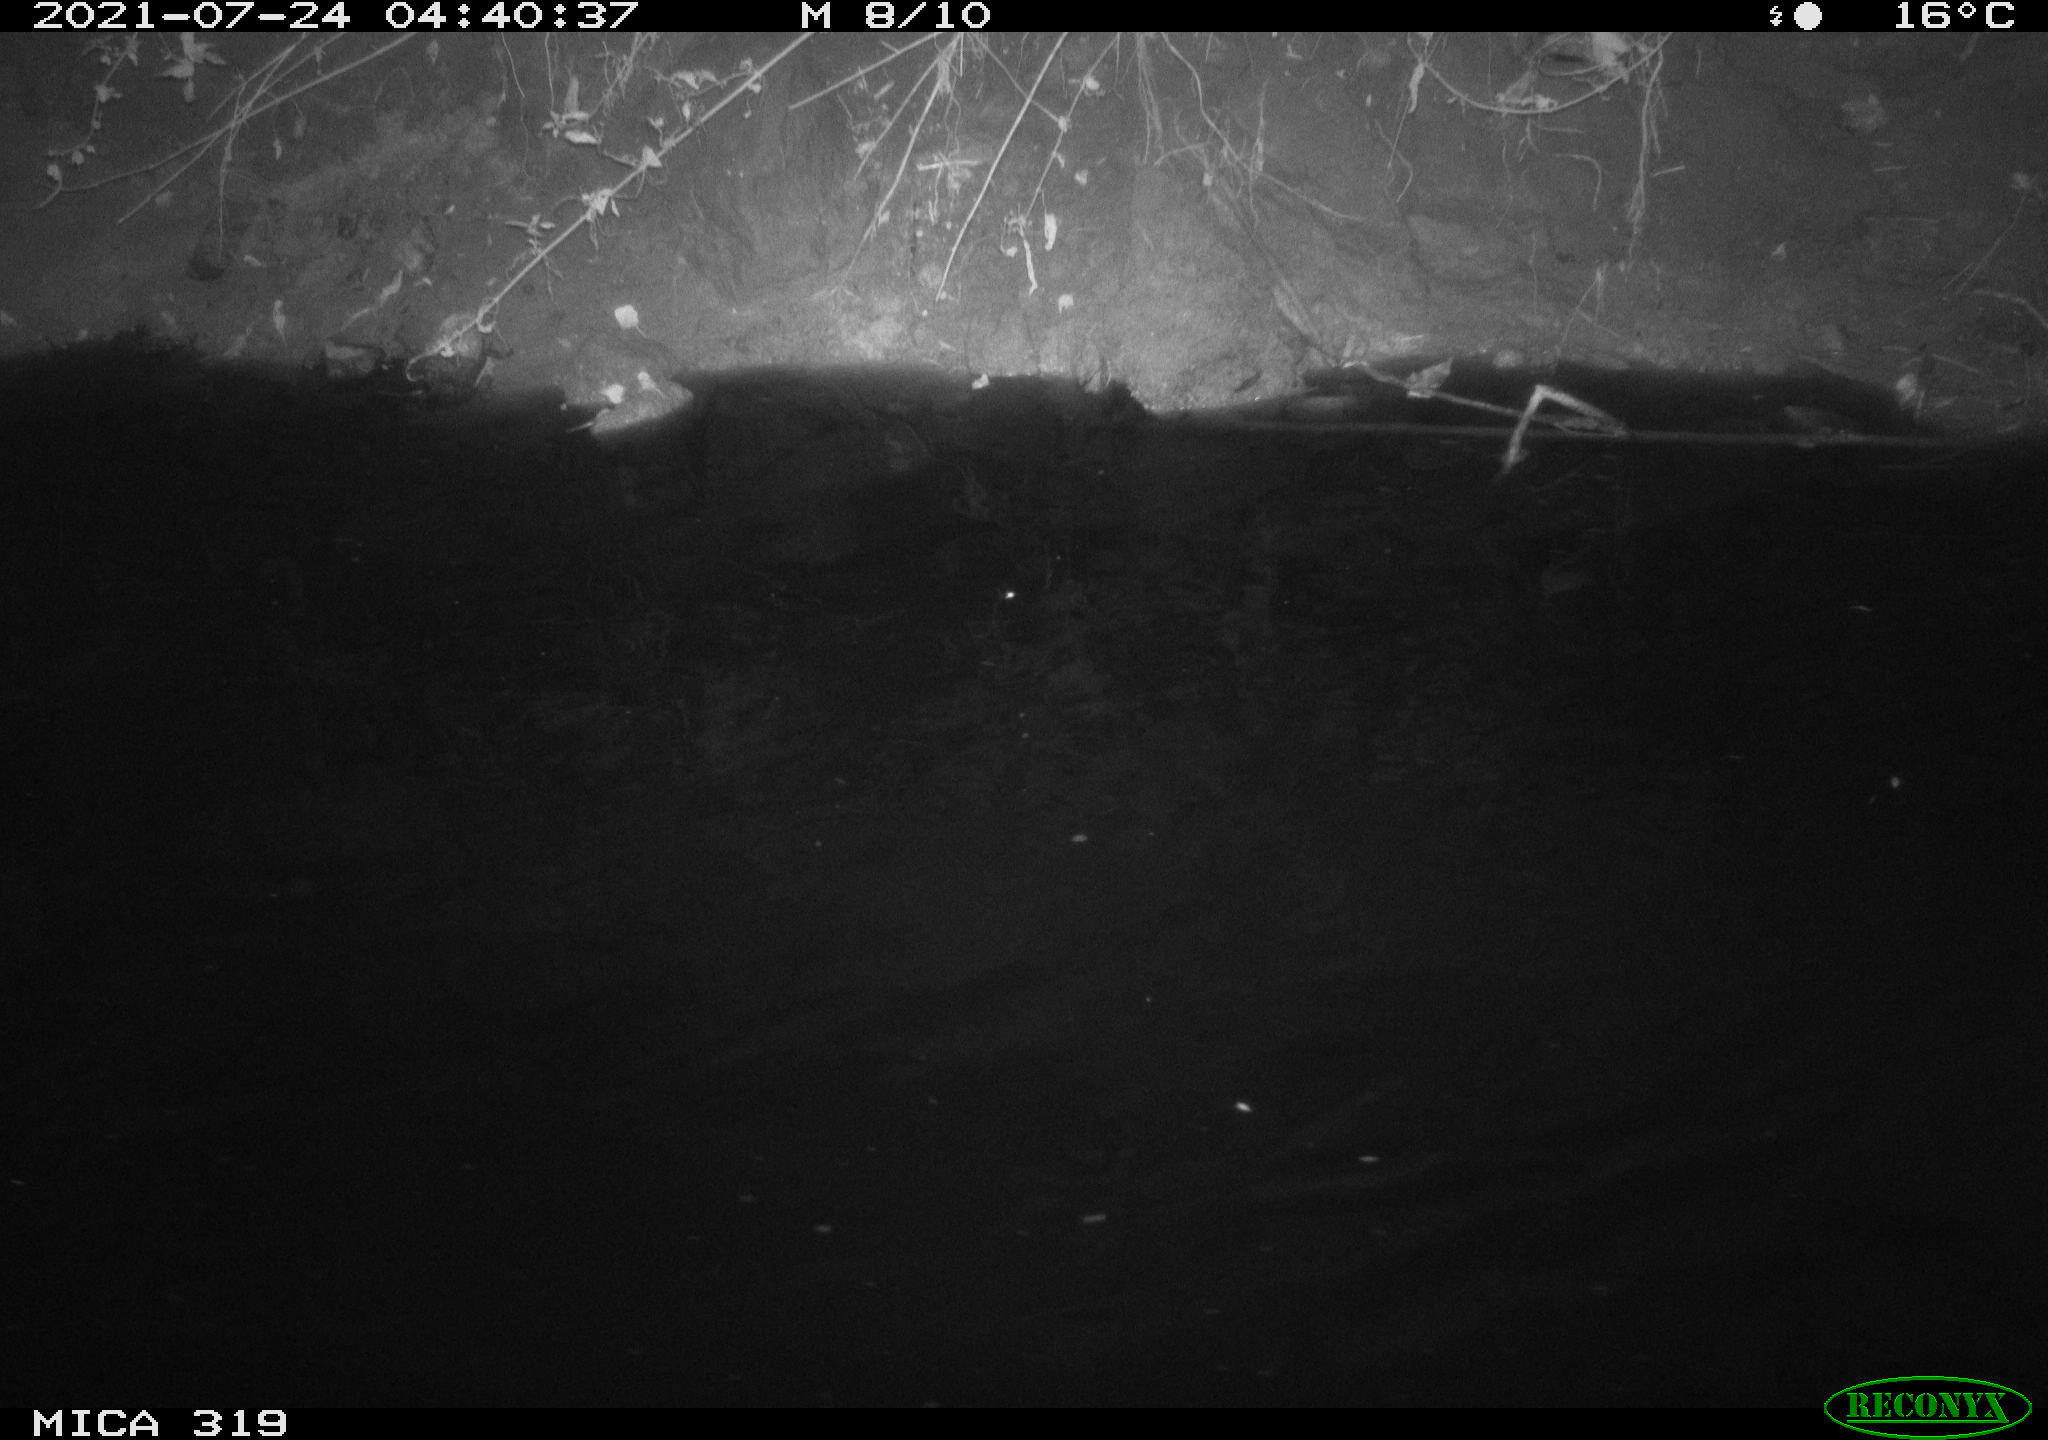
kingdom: Animalia
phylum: Chordata
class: Aves
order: Anseriformes
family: Anatidae
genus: Anas
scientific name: Anas platyrhynchos
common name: Mallard
